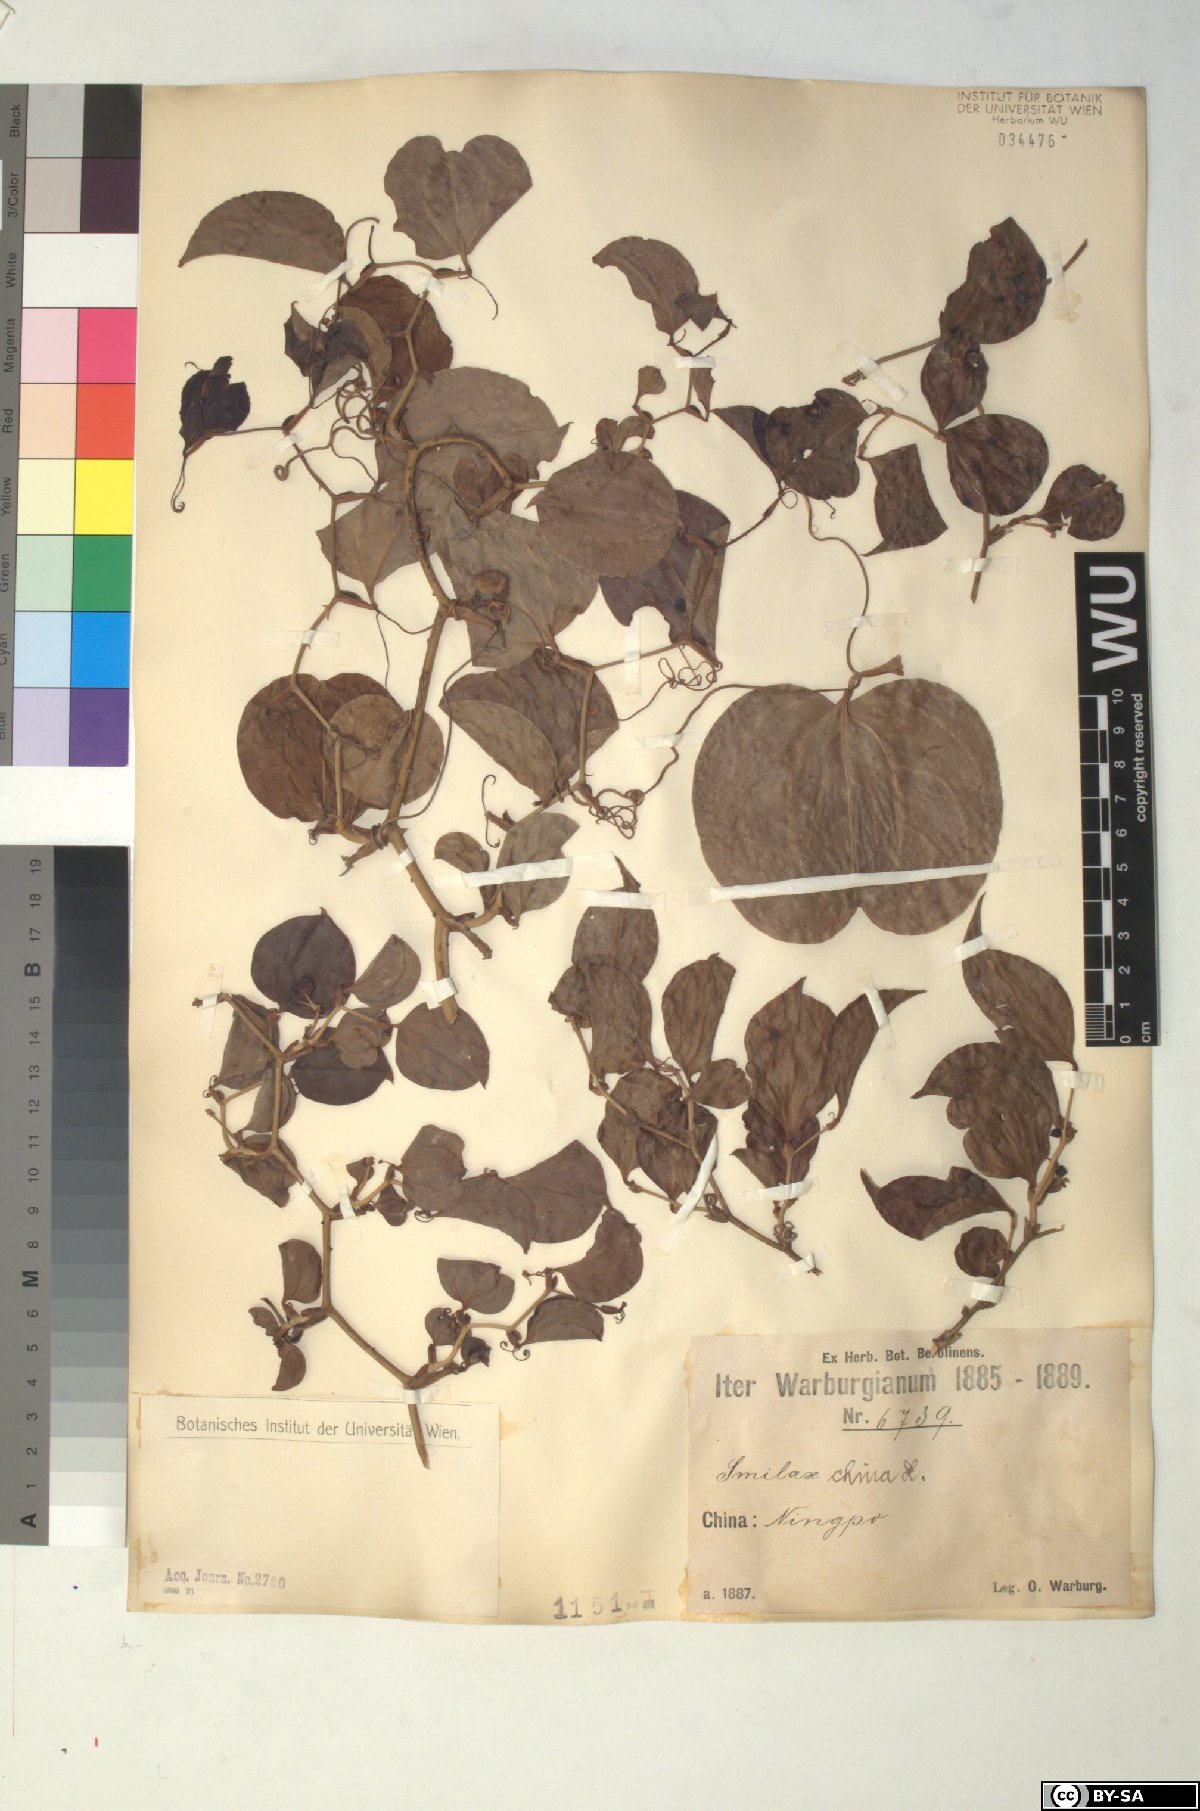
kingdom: Plantae
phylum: Tracheophyta
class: Liliopsida
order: Liliales
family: Smilacaceae
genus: Smilax
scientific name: Smilax china
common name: Chinaroot
